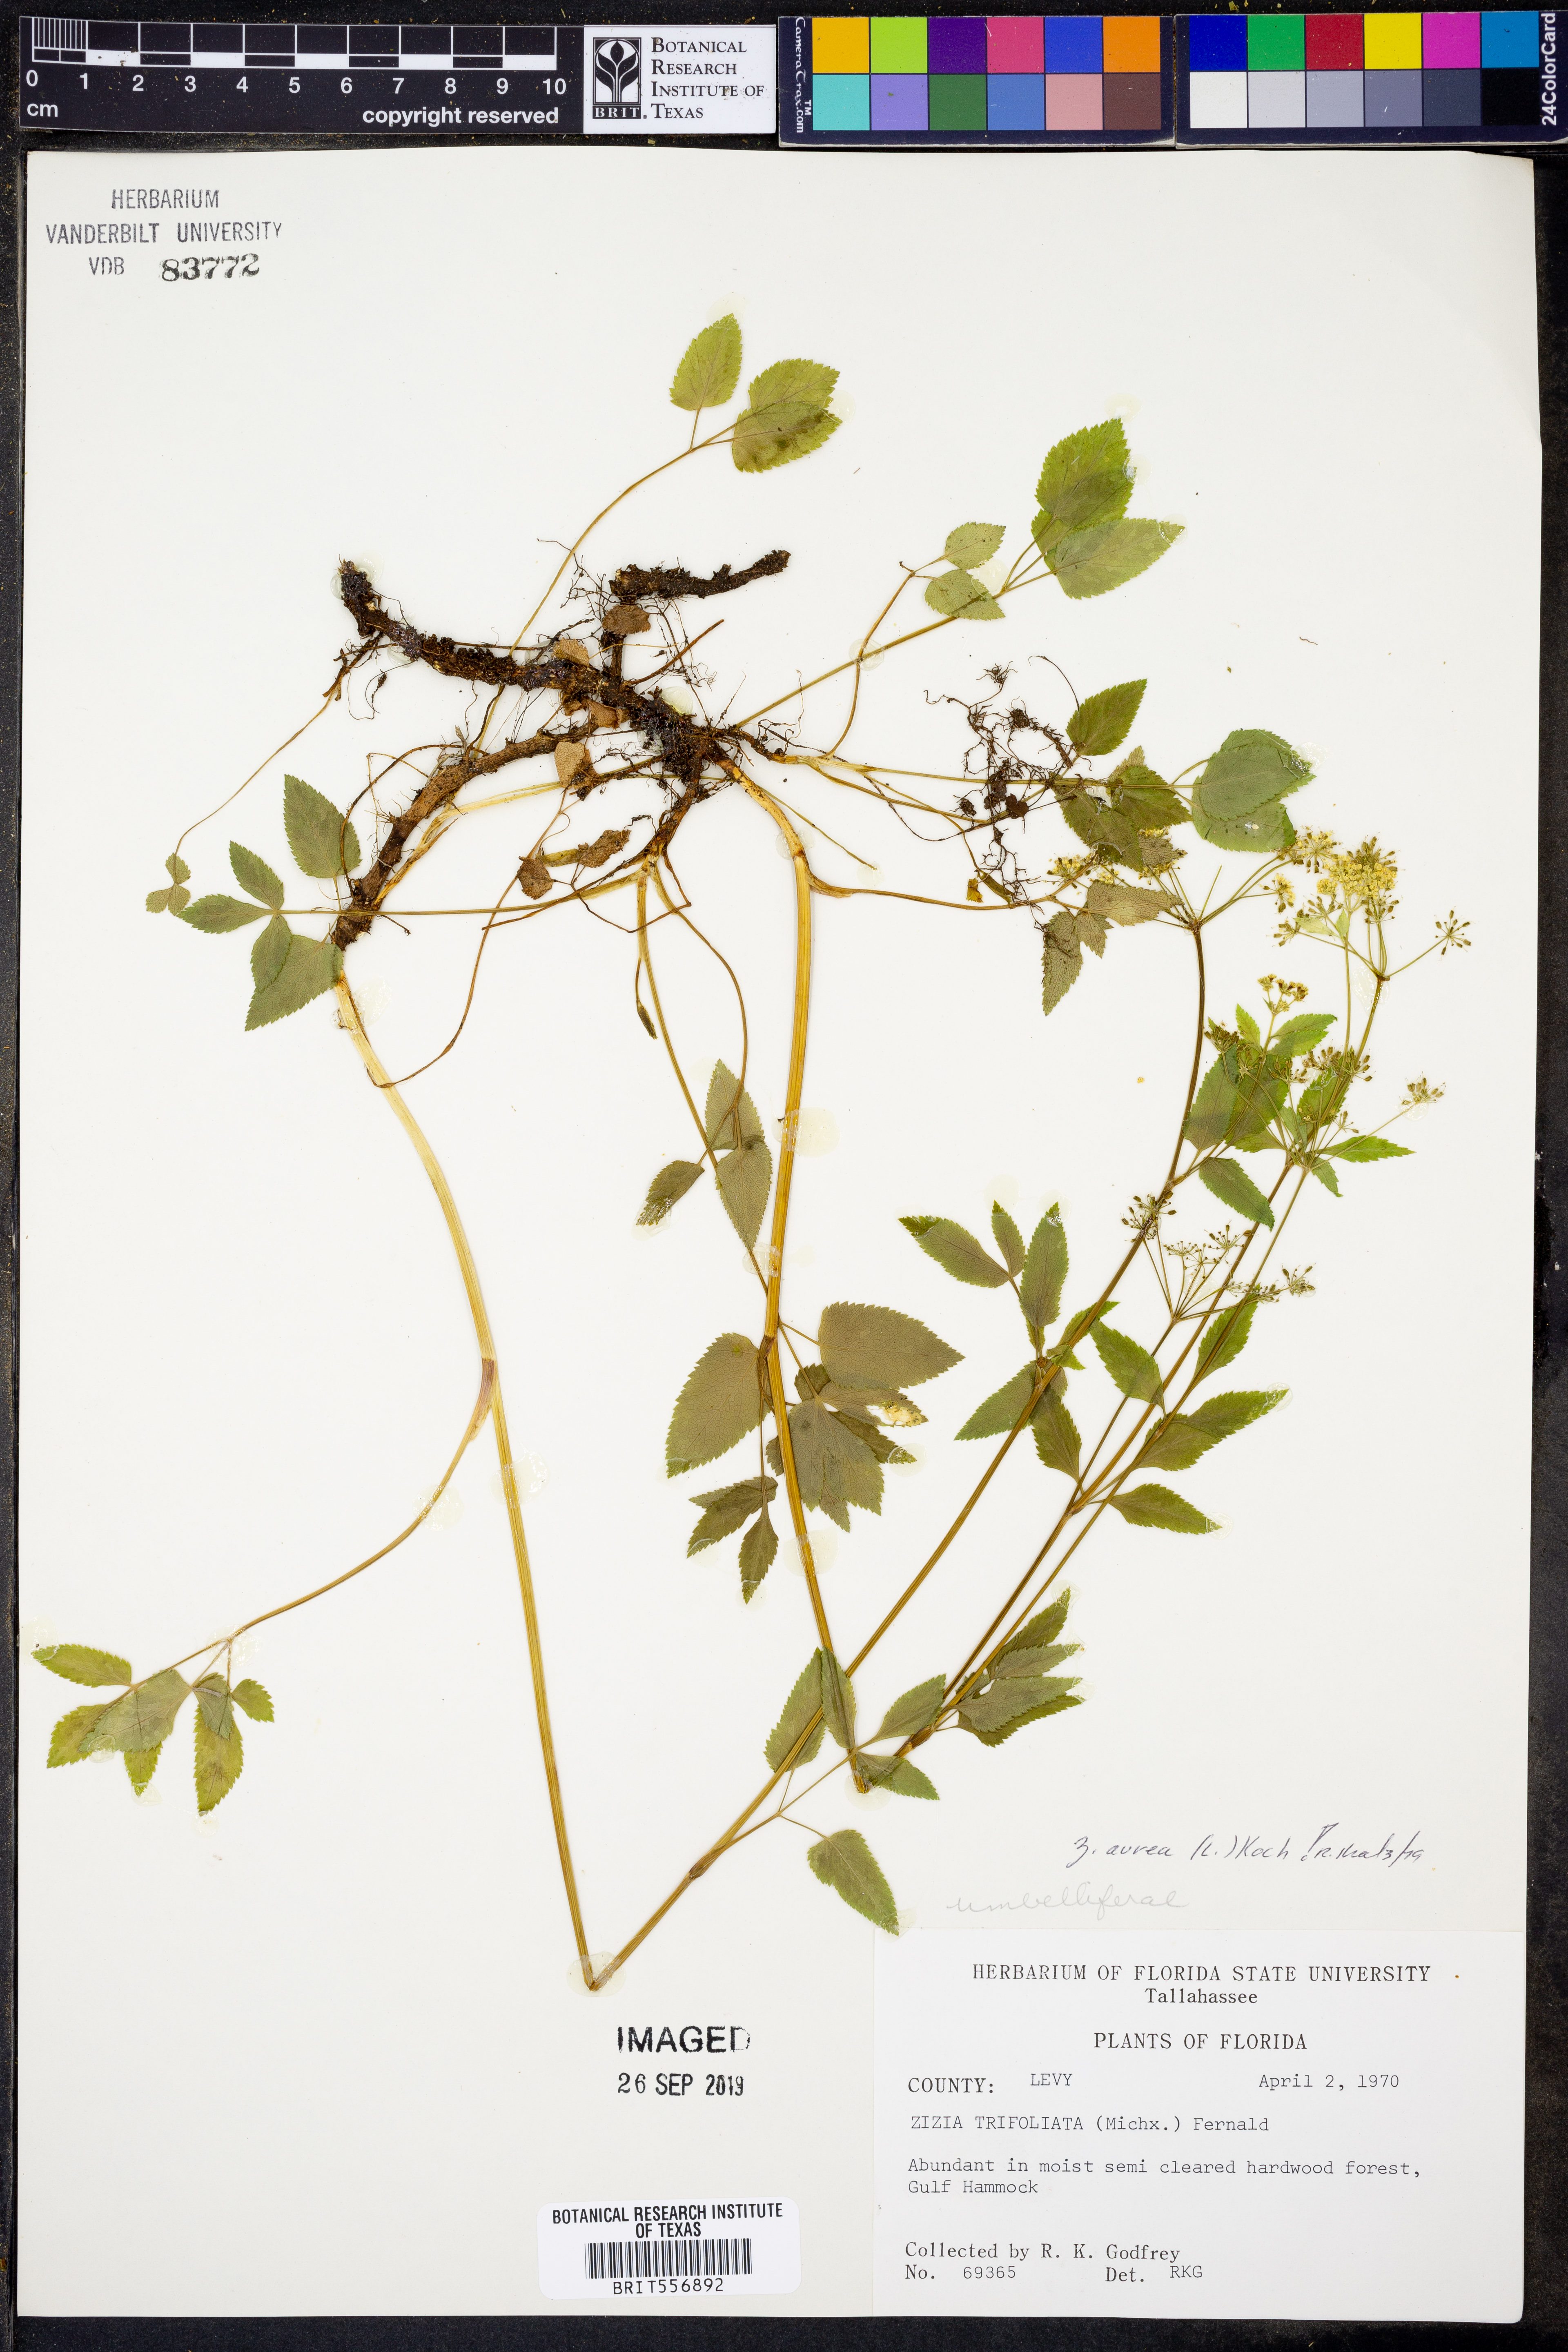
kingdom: Plantae
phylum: Tracheophyta
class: Magnoliopsida
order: Apiales
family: Apiaceae
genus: Zizia
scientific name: Zizia aurea
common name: Golden alexanders
